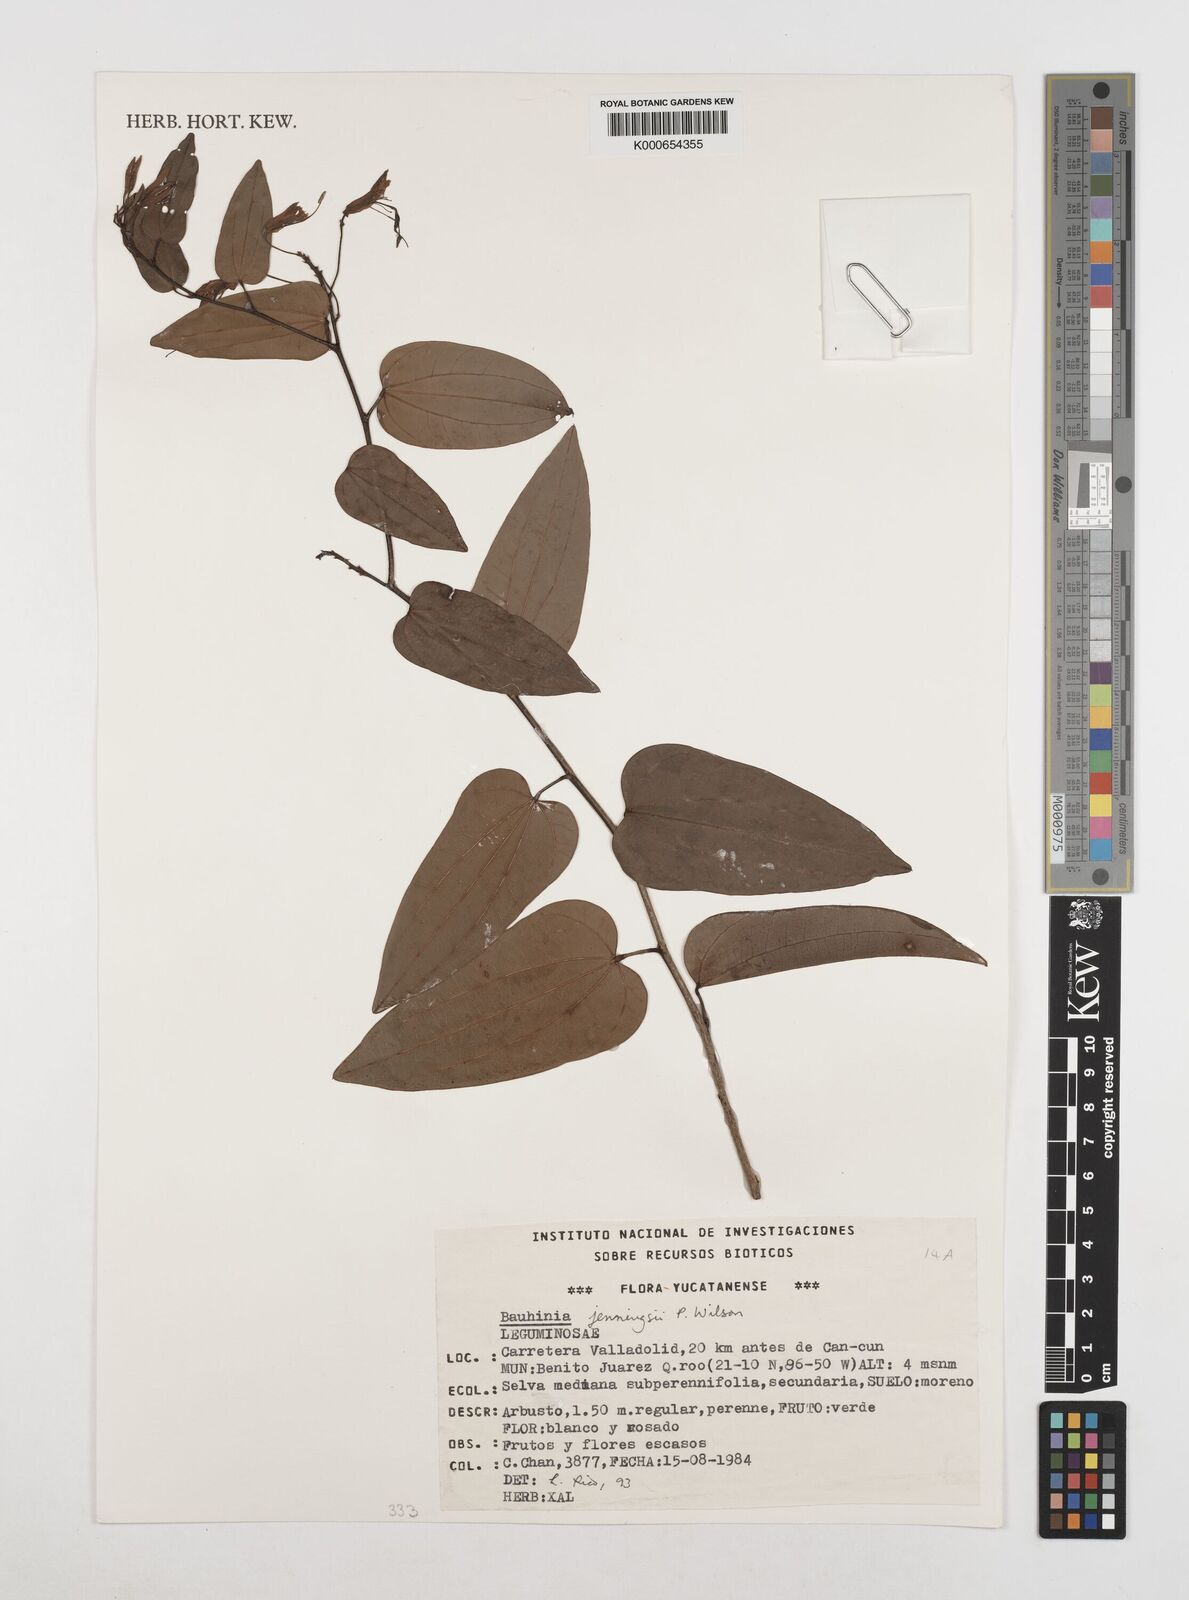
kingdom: Plantae
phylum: Tracheophyta
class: Magnoliopsida
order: Fabales
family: Fabaceae
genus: Bauhinia
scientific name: Bauhinia jenningsii
